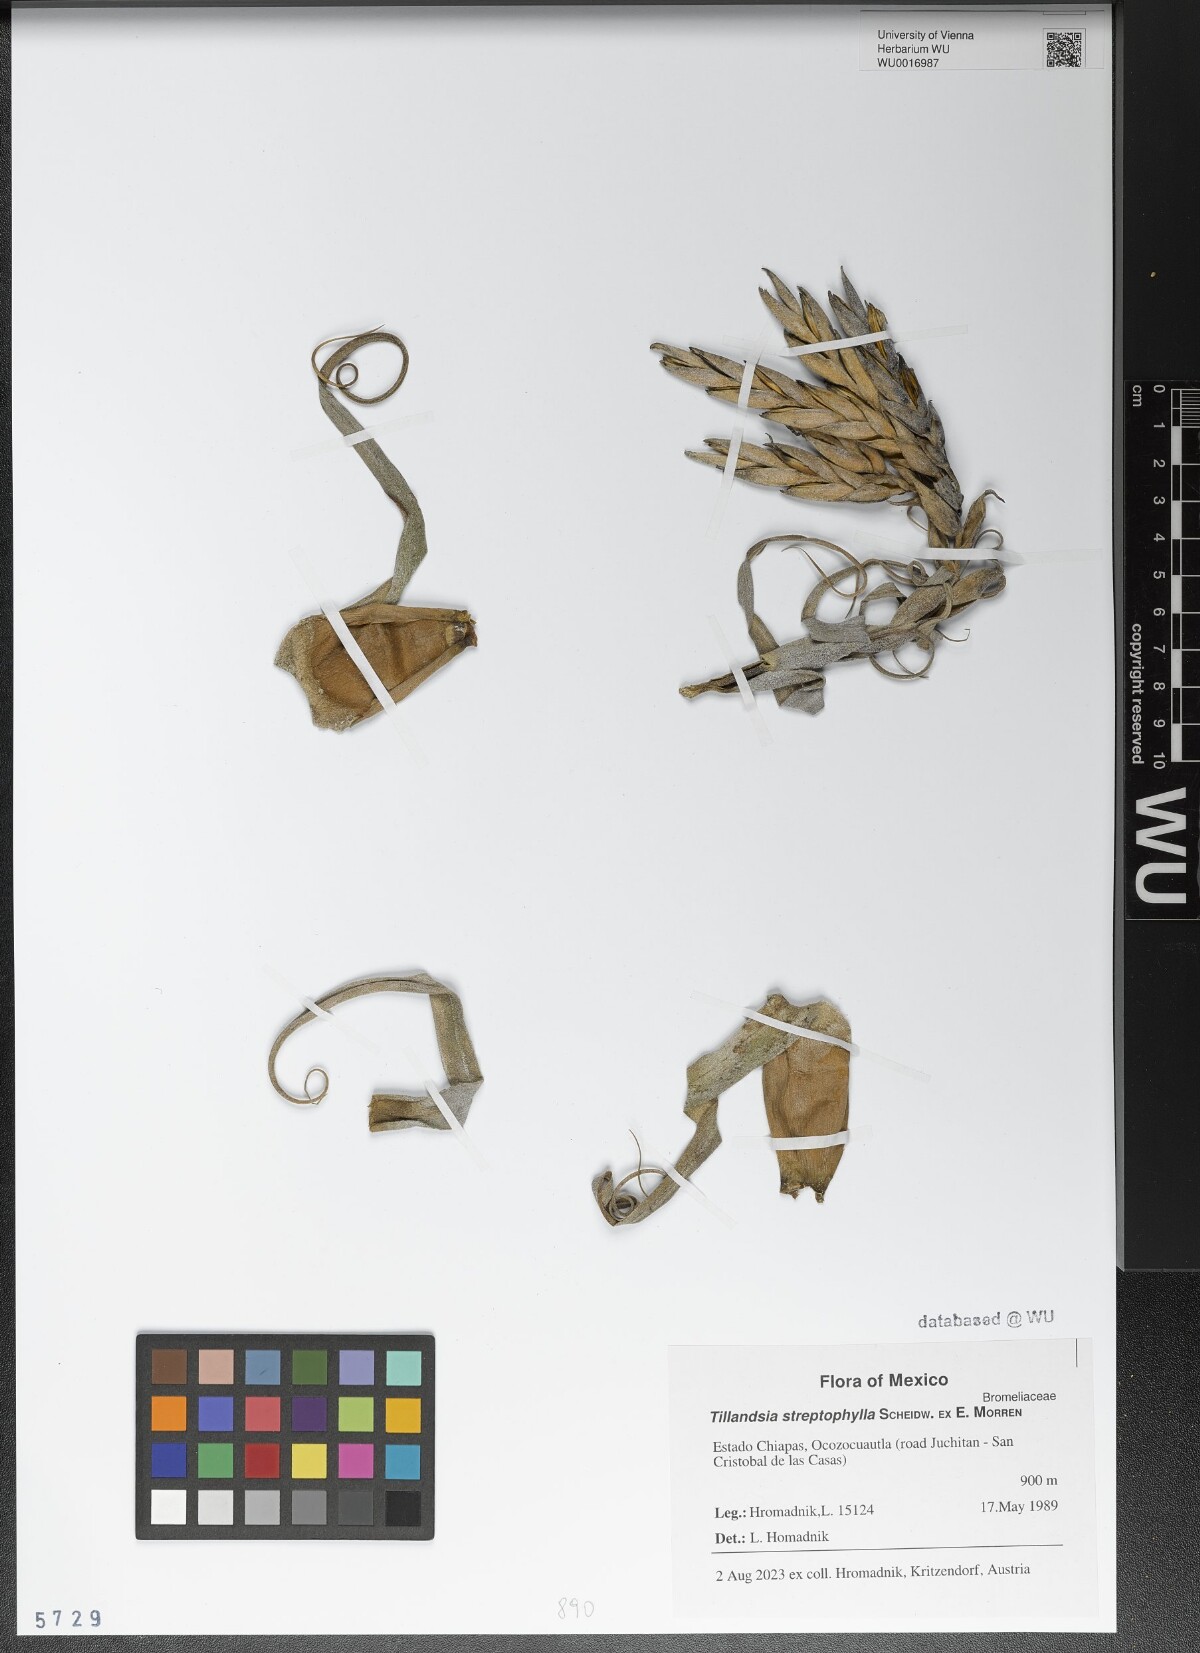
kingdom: Plantae
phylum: Tracheophyta
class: Liliopsida
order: Poales
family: Bromeliaceae
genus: Tillandsia
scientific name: Tillandsia streptophylla
